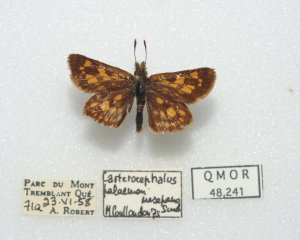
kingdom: Animalia
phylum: Arthropoda
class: Insecta
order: Lepidoptera
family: Hesperiidae
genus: Carterocephalus
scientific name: Carterocephalus palaemon
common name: Chequered Skipper
